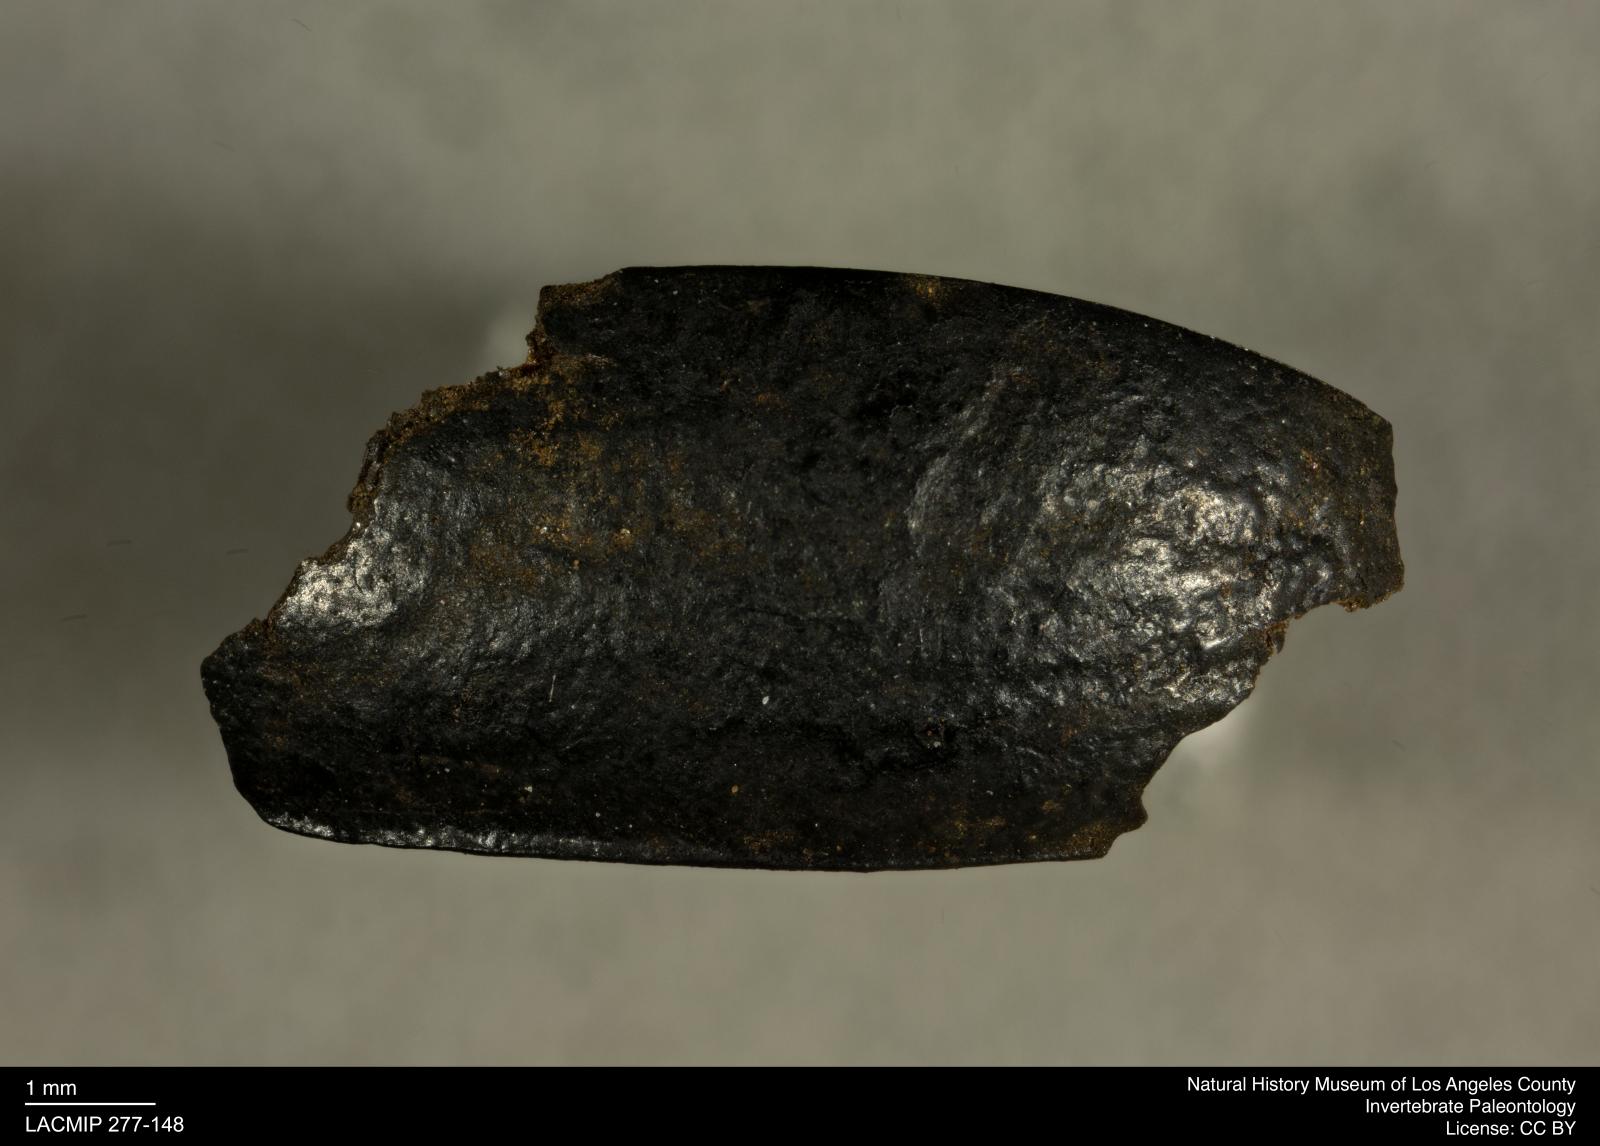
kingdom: Animalia
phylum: Arthropoda
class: Insecta
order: Coleoptera
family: Tenebrionidae
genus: Coniontis
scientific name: Coniontis abdominalis
